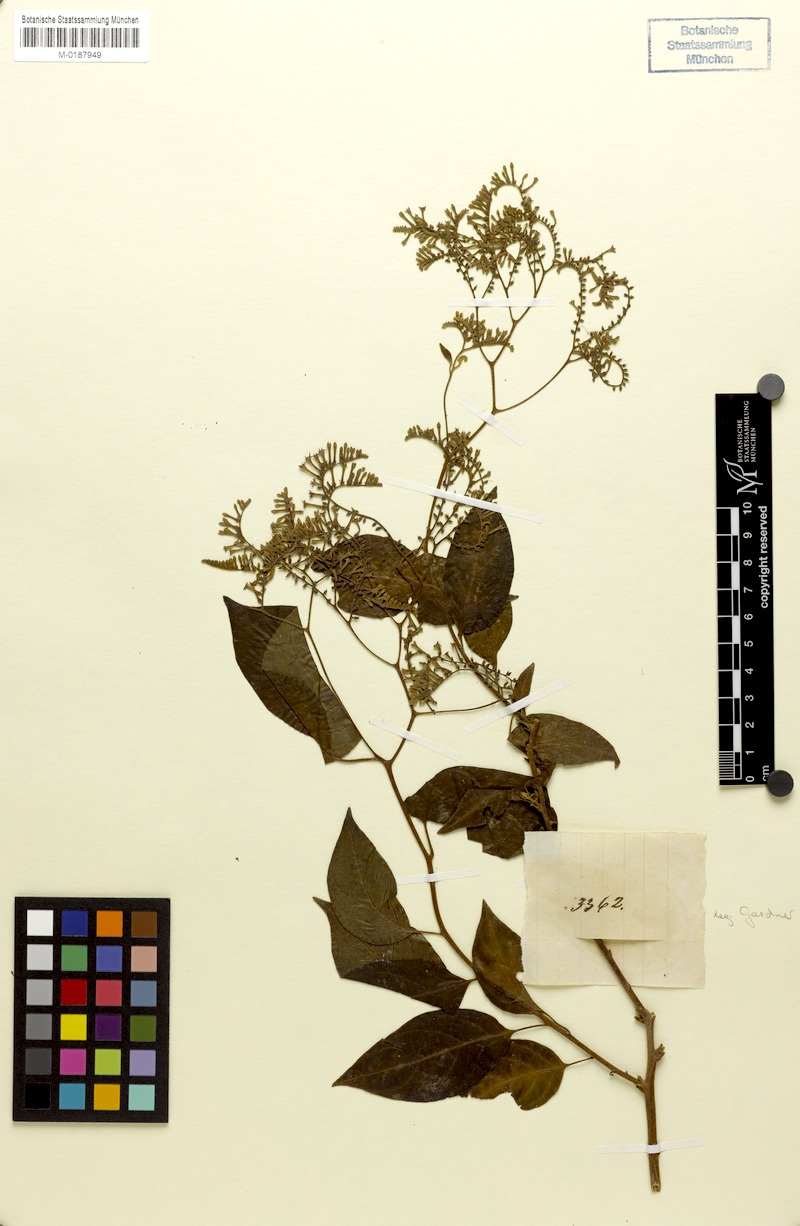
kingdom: Plantae
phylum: Tracheophyta
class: Magnoliopsida
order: Boraginales
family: Heliotropiaceae
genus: Myriopus
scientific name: Myriopus paniculatus
